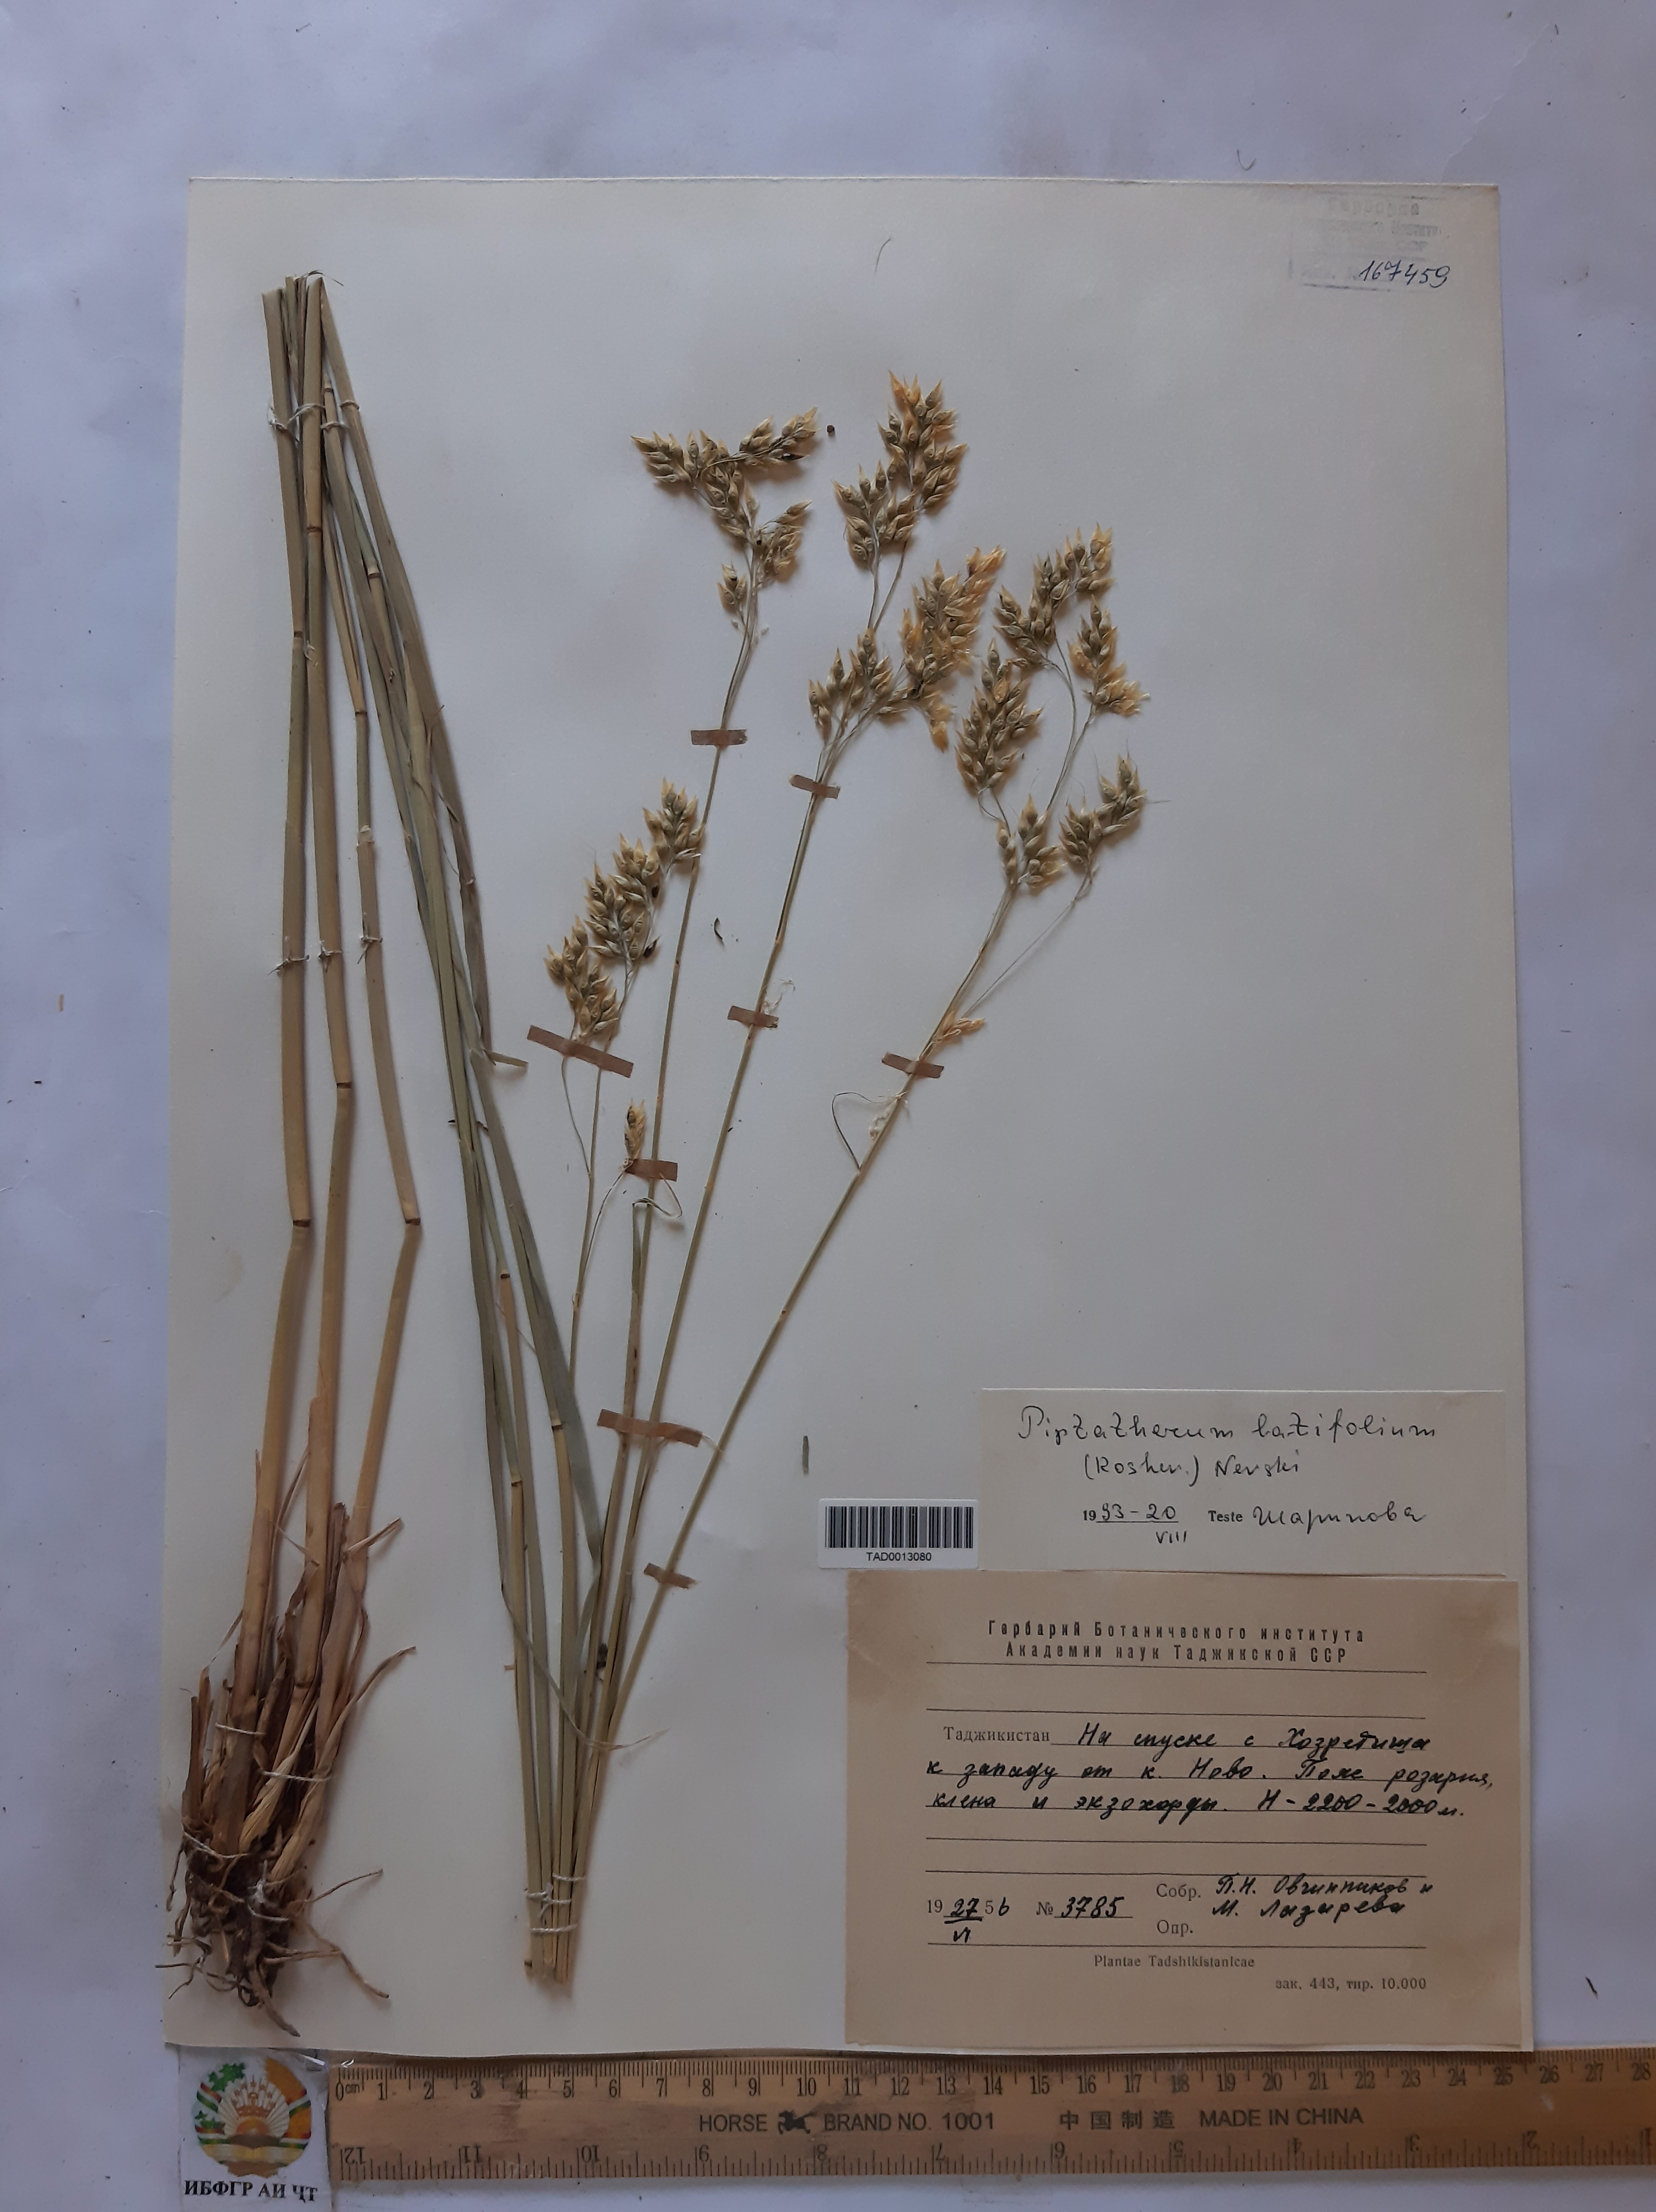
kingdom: Plantae
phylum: Tracheophyta
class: Liliopsida
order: Poales
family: Poaceae
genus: Piptatherum
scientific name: Piptatherum laterale
